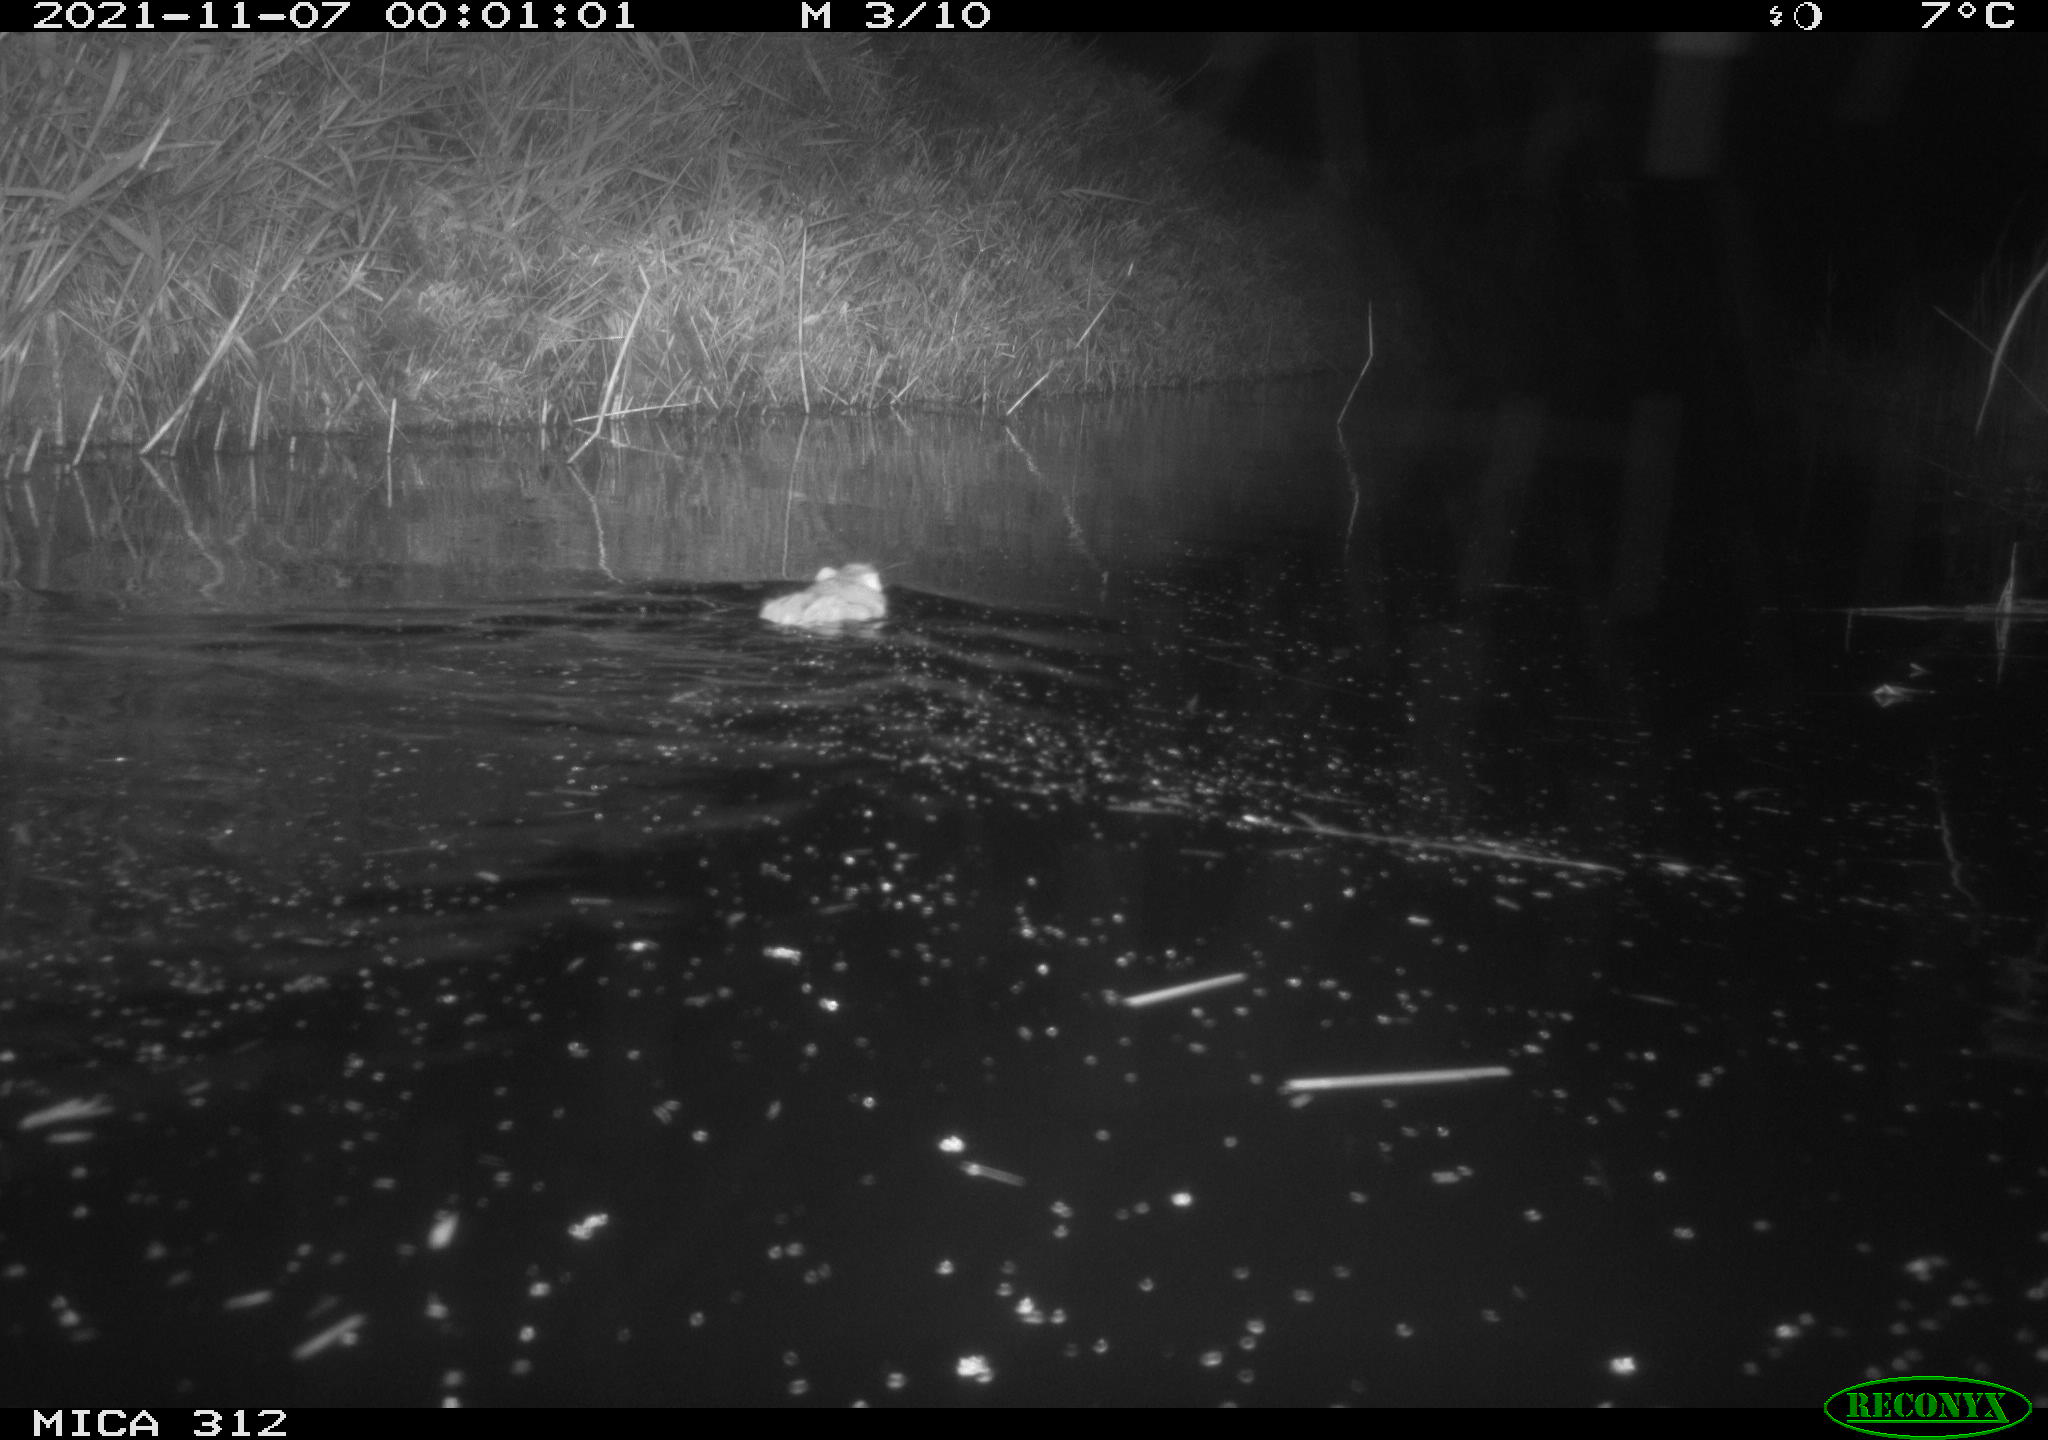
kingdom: Animalia
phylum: Chordata
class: Mammalia
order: Rodentia
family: Muridae
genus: Rattus
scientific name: Rattus norvegicus
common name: Brown rat
